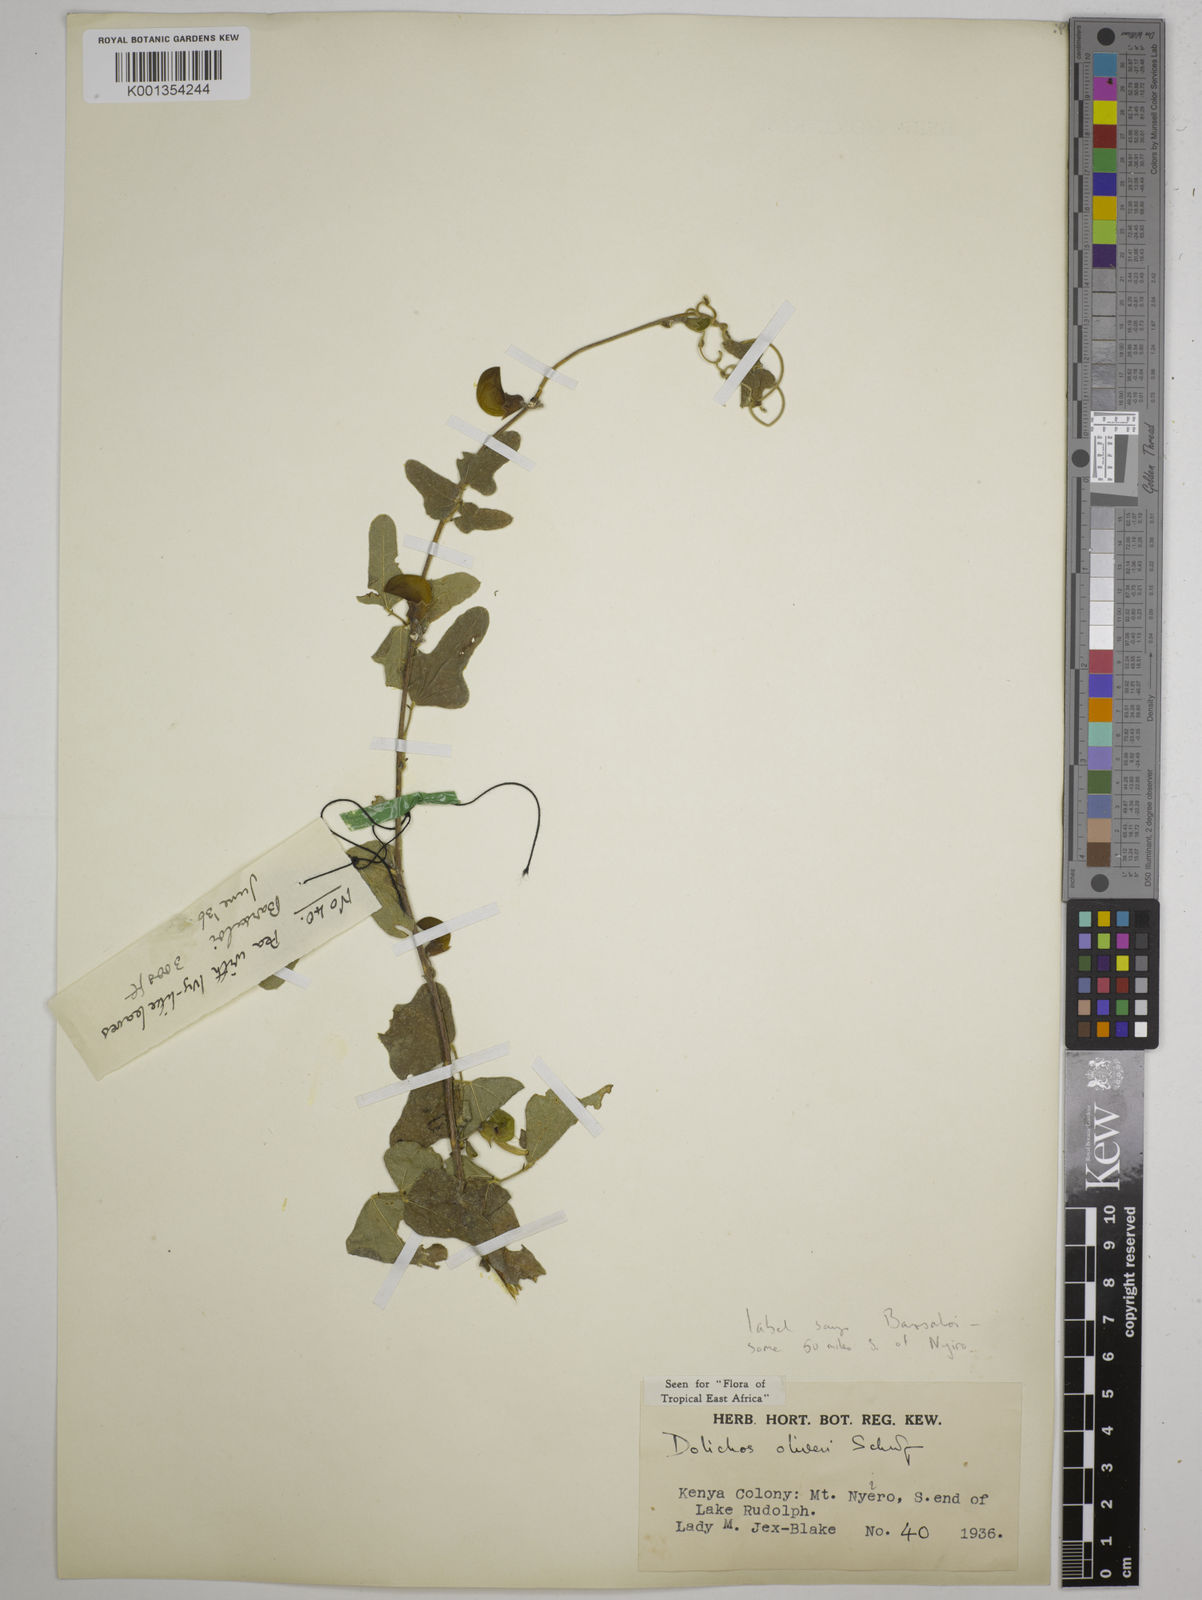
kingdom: Plantae
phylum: Tracheophyta
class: Magnoliopsida
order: Fabales
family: Fabaceae
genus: Dolichos
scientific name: Dolichos oliveri
